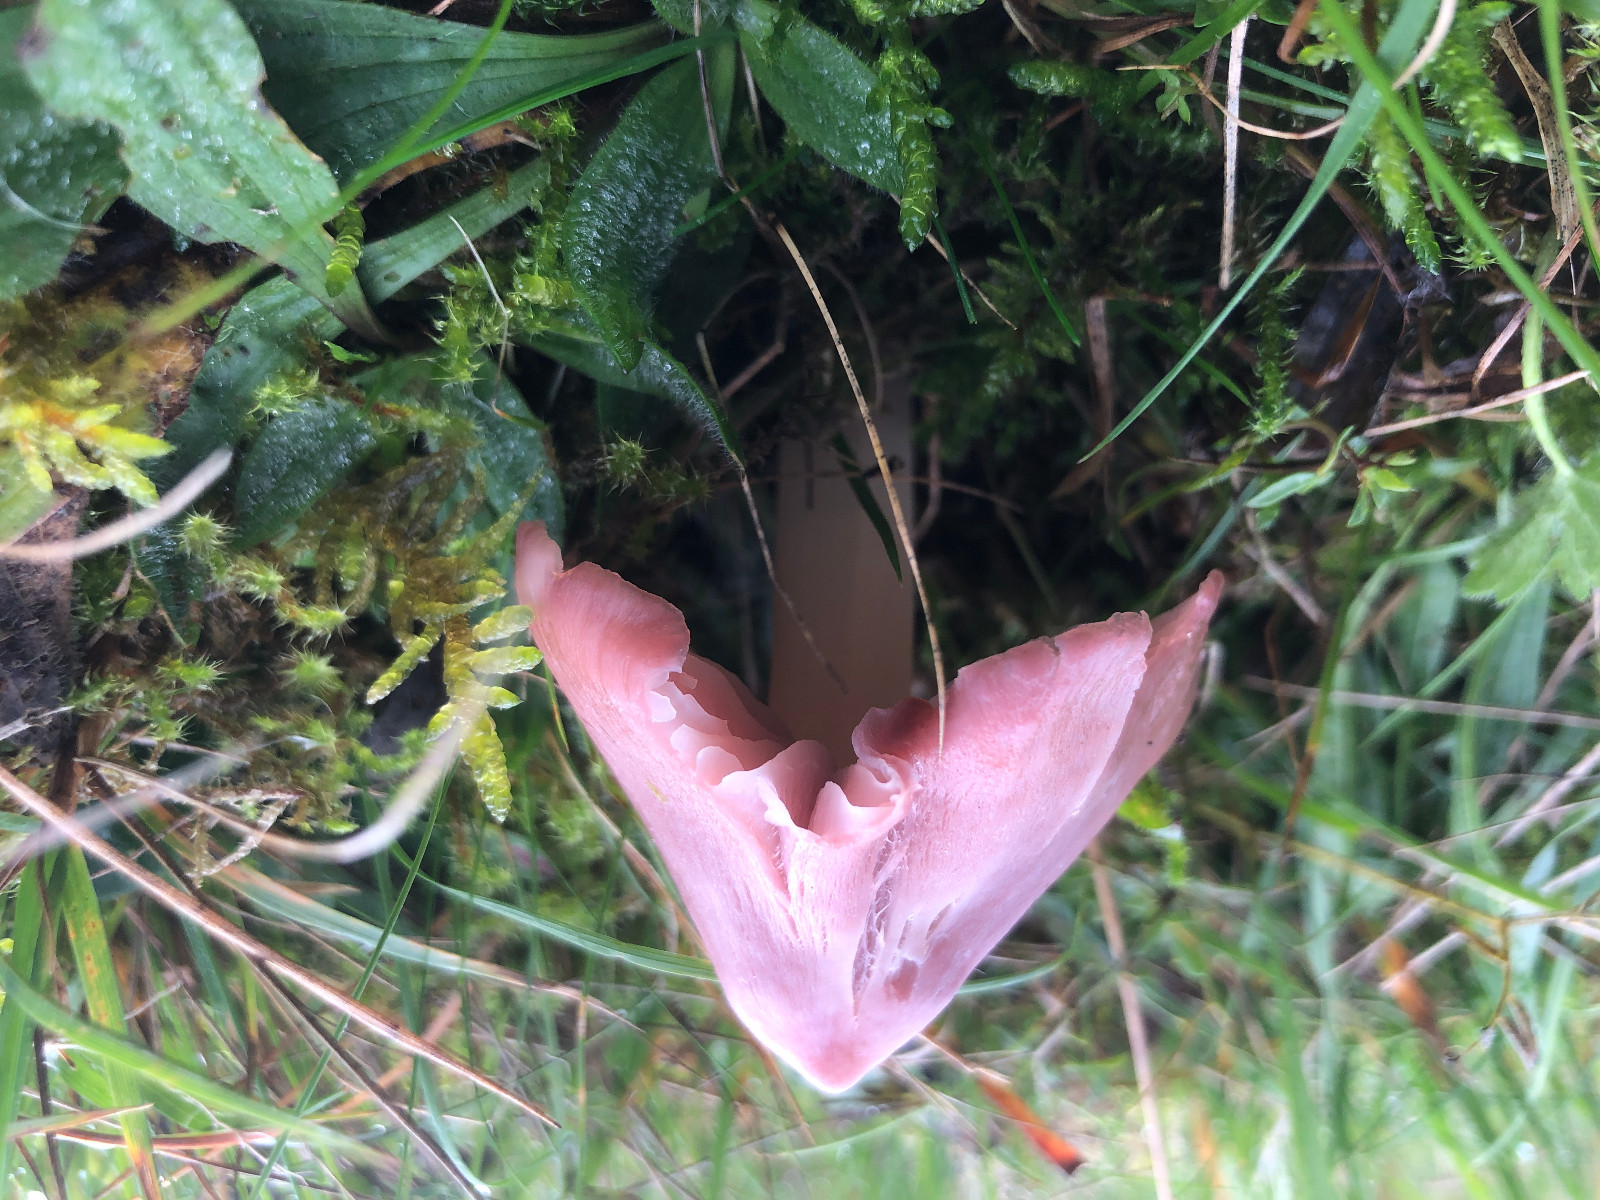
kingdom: Fungi
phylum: Basidiomycota
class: Agaricomycetes
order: Agaricales
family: Hygrophoraceae
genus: Porpolomopsis
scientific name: Porpolomopsis calyptriformis
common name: rosenrød vokshat
